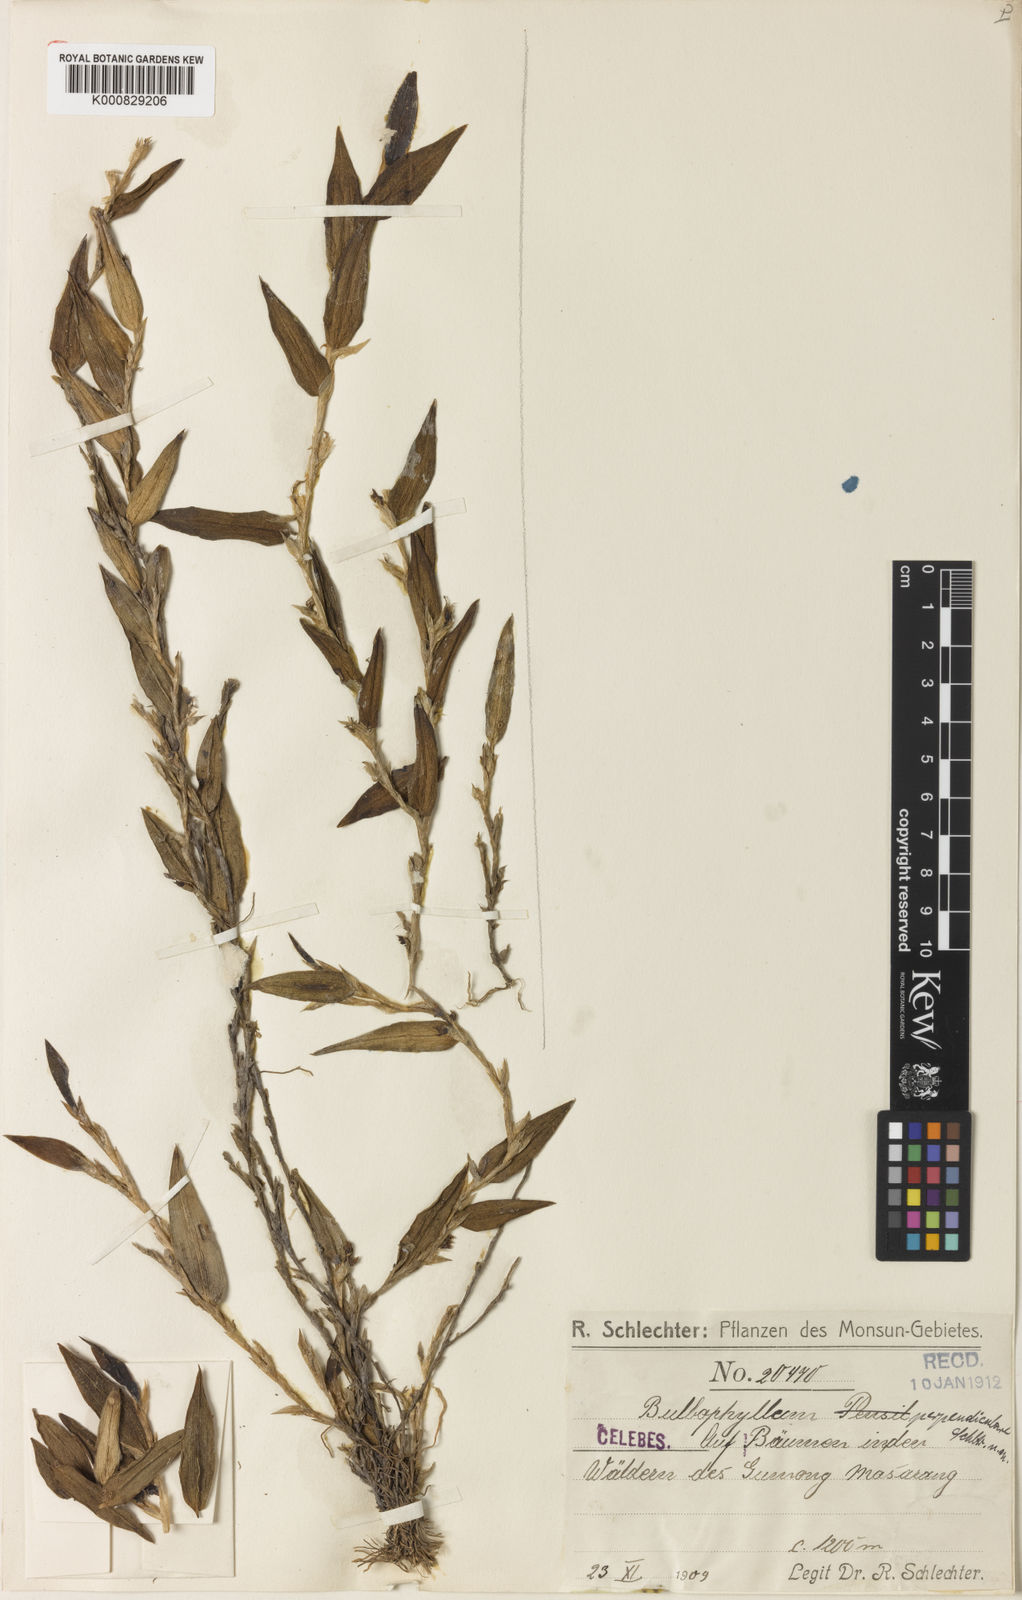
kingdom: Plantae
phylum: Tracheophyta
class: Liliopsida
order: Asparagales
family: Orchidaceae
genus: Bulbophyllum
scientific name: Bulbophyllum perpendiculare
